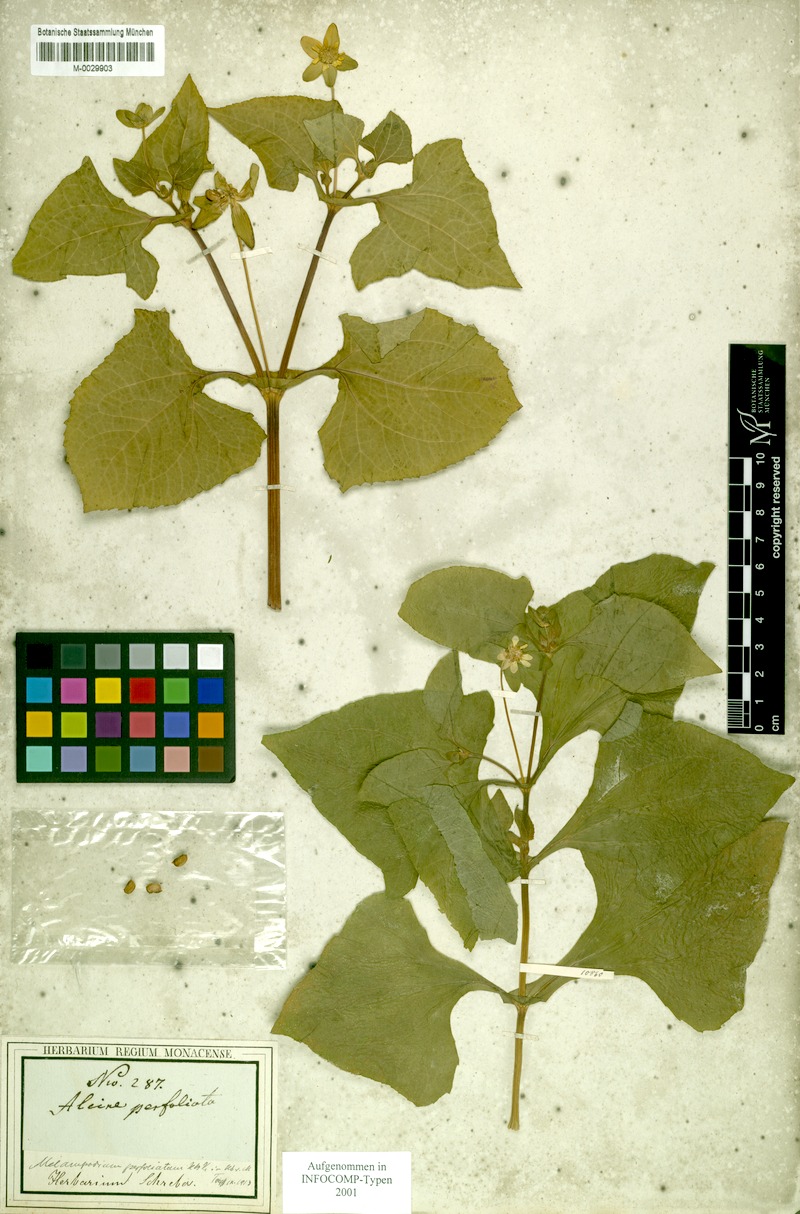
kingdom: Plantae
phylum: Tracheophyta
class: Magnoliopsida
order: Asterales
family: Asteraceae
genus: Melampodium
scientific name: Melampodium perfoliatum
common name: Perfoliate blackfoot
